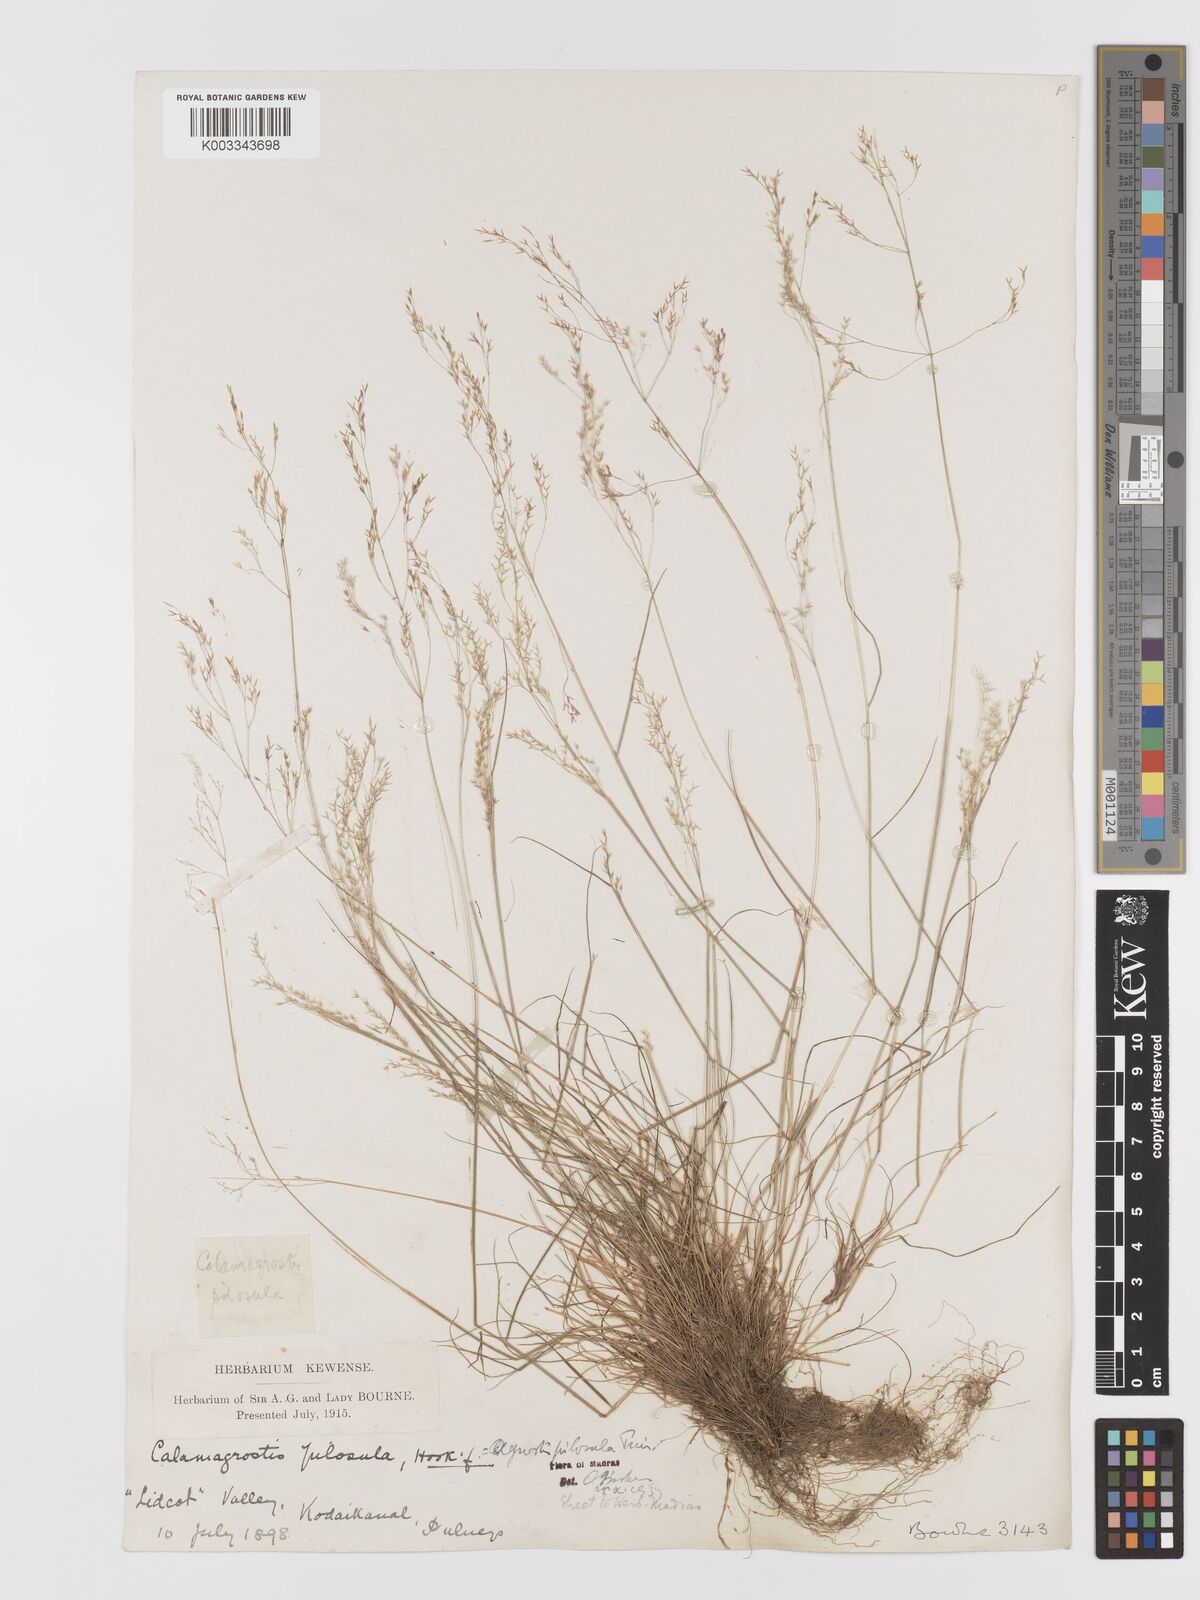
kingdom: Plantae
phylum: Tracheophyta
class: Liliopsida
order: Poales
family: Poaceae
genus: Agrostis
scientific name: Agrostis pilosula
